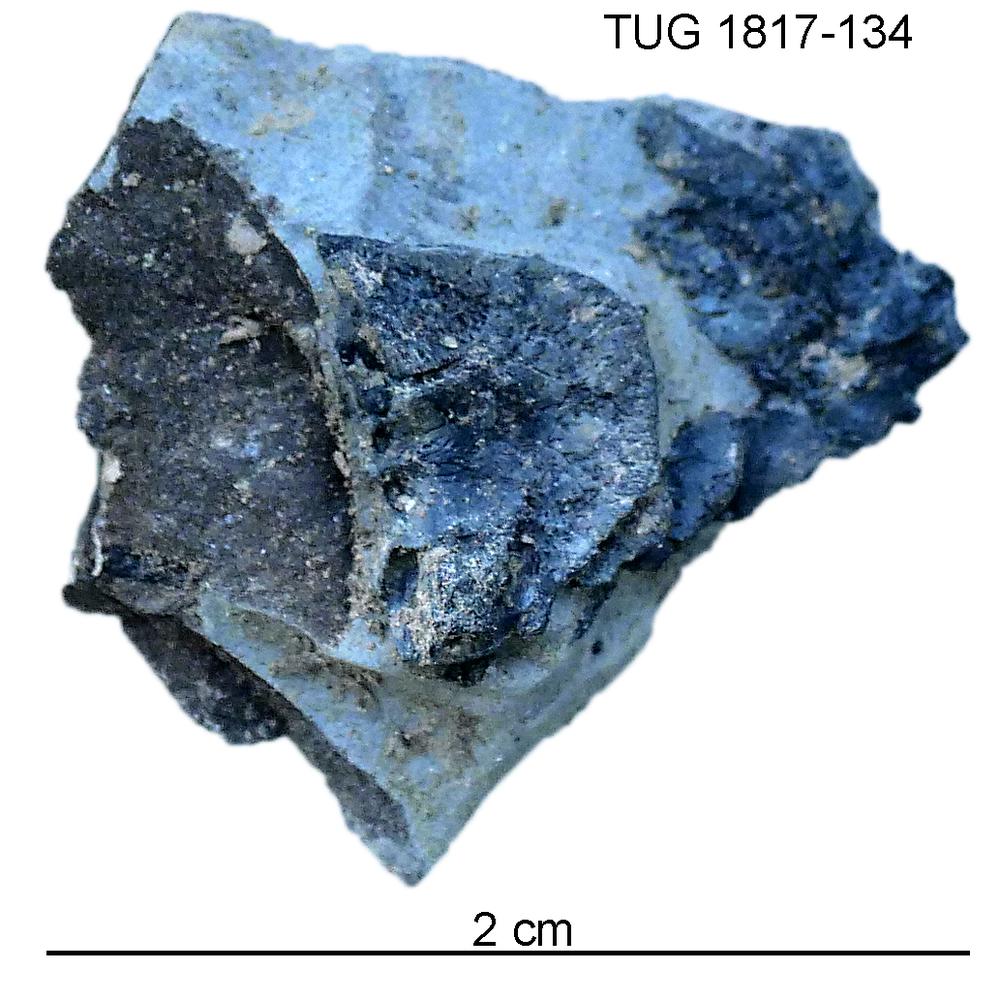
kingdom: Animalia
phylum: Chordata
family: Coccosteidae
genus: Millerosteus
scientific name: Millerosteus minor
